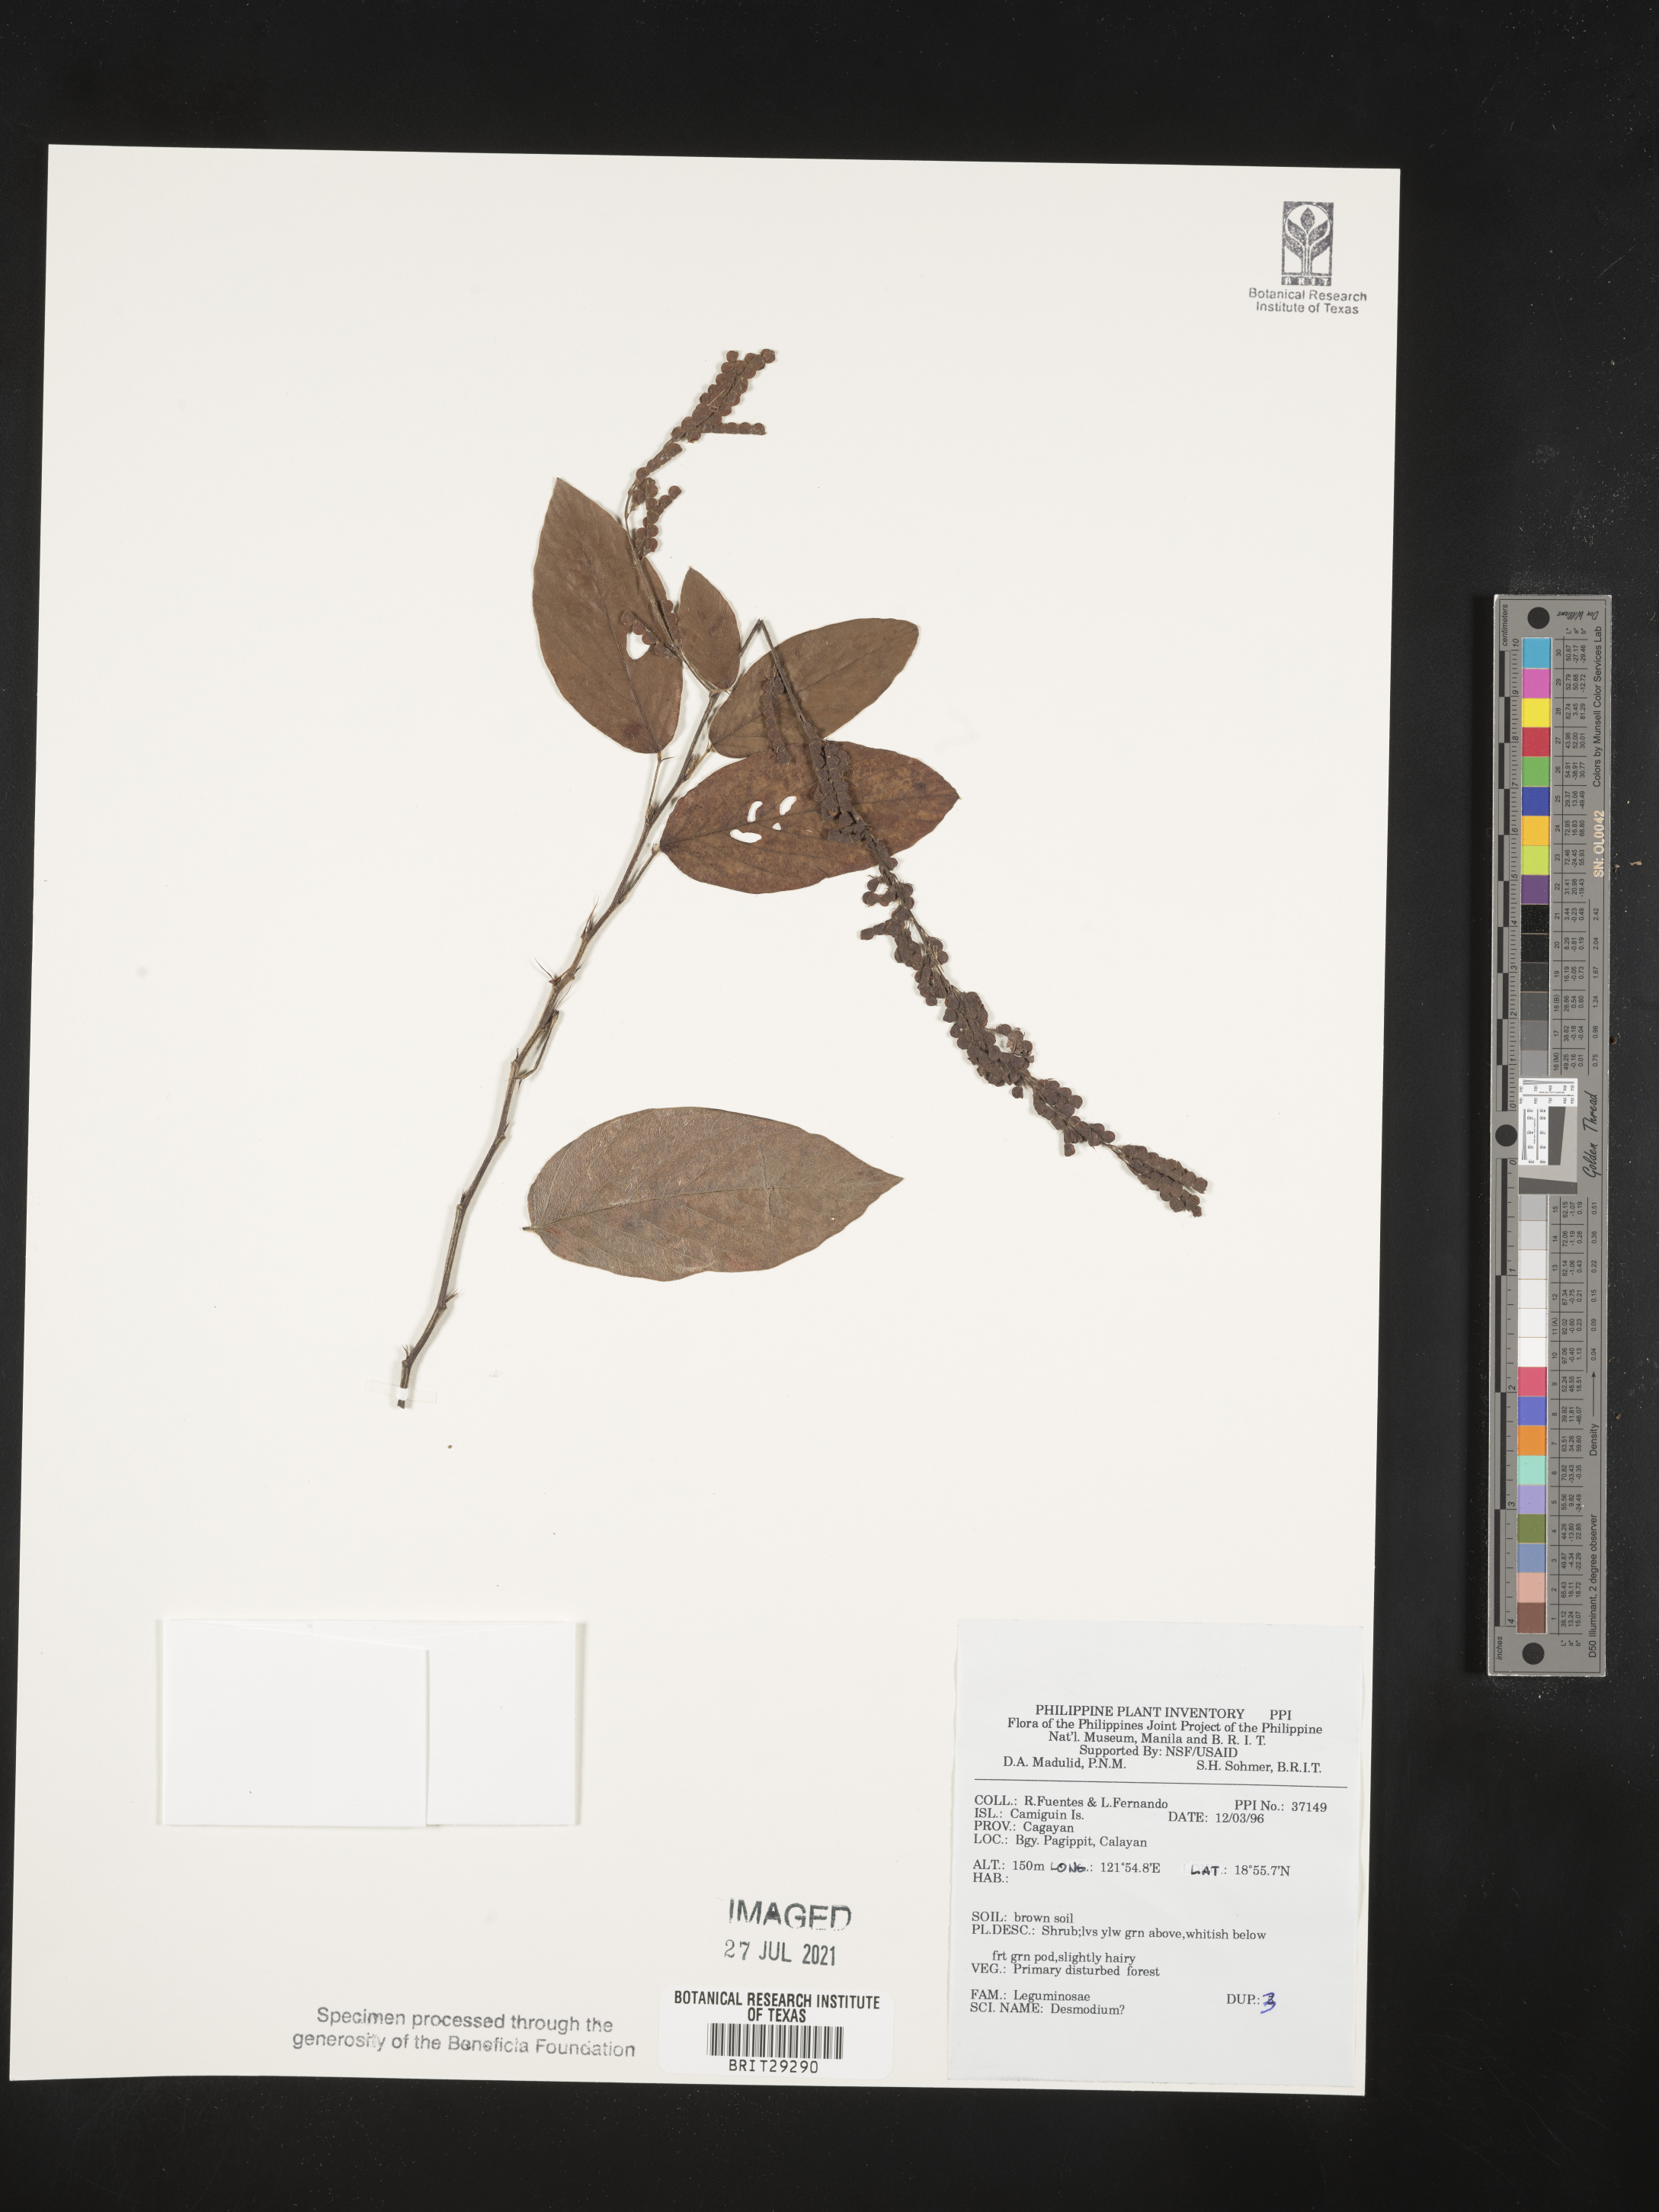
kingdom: Plantae
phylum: Tracheophyta
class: Magnoliopsida
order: Fabales
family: Fabaceae
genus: Desmodium
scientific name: Desmodium
